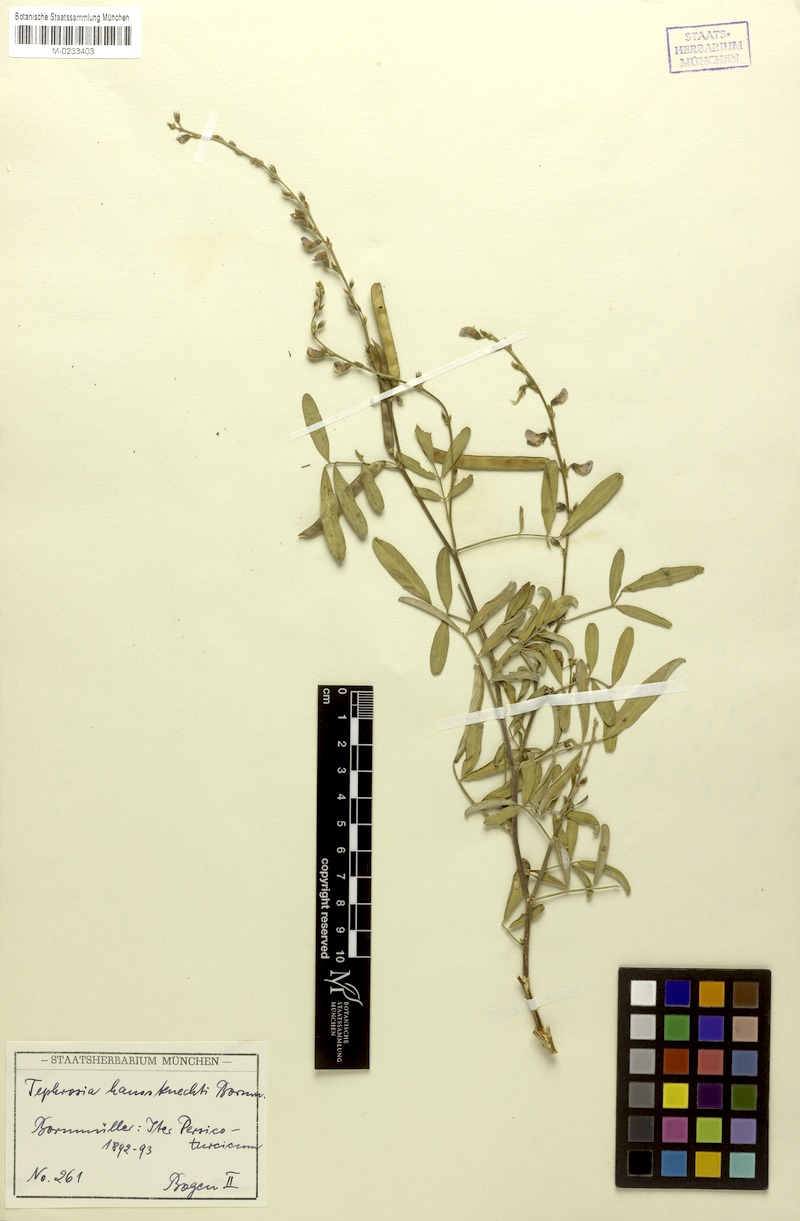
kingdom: Plantae
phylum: Tracheophyta
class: Magnoliopsida
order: Fabales
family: Fabaceae
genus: Tephrosia
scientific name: Tephrosia haussknechtii
